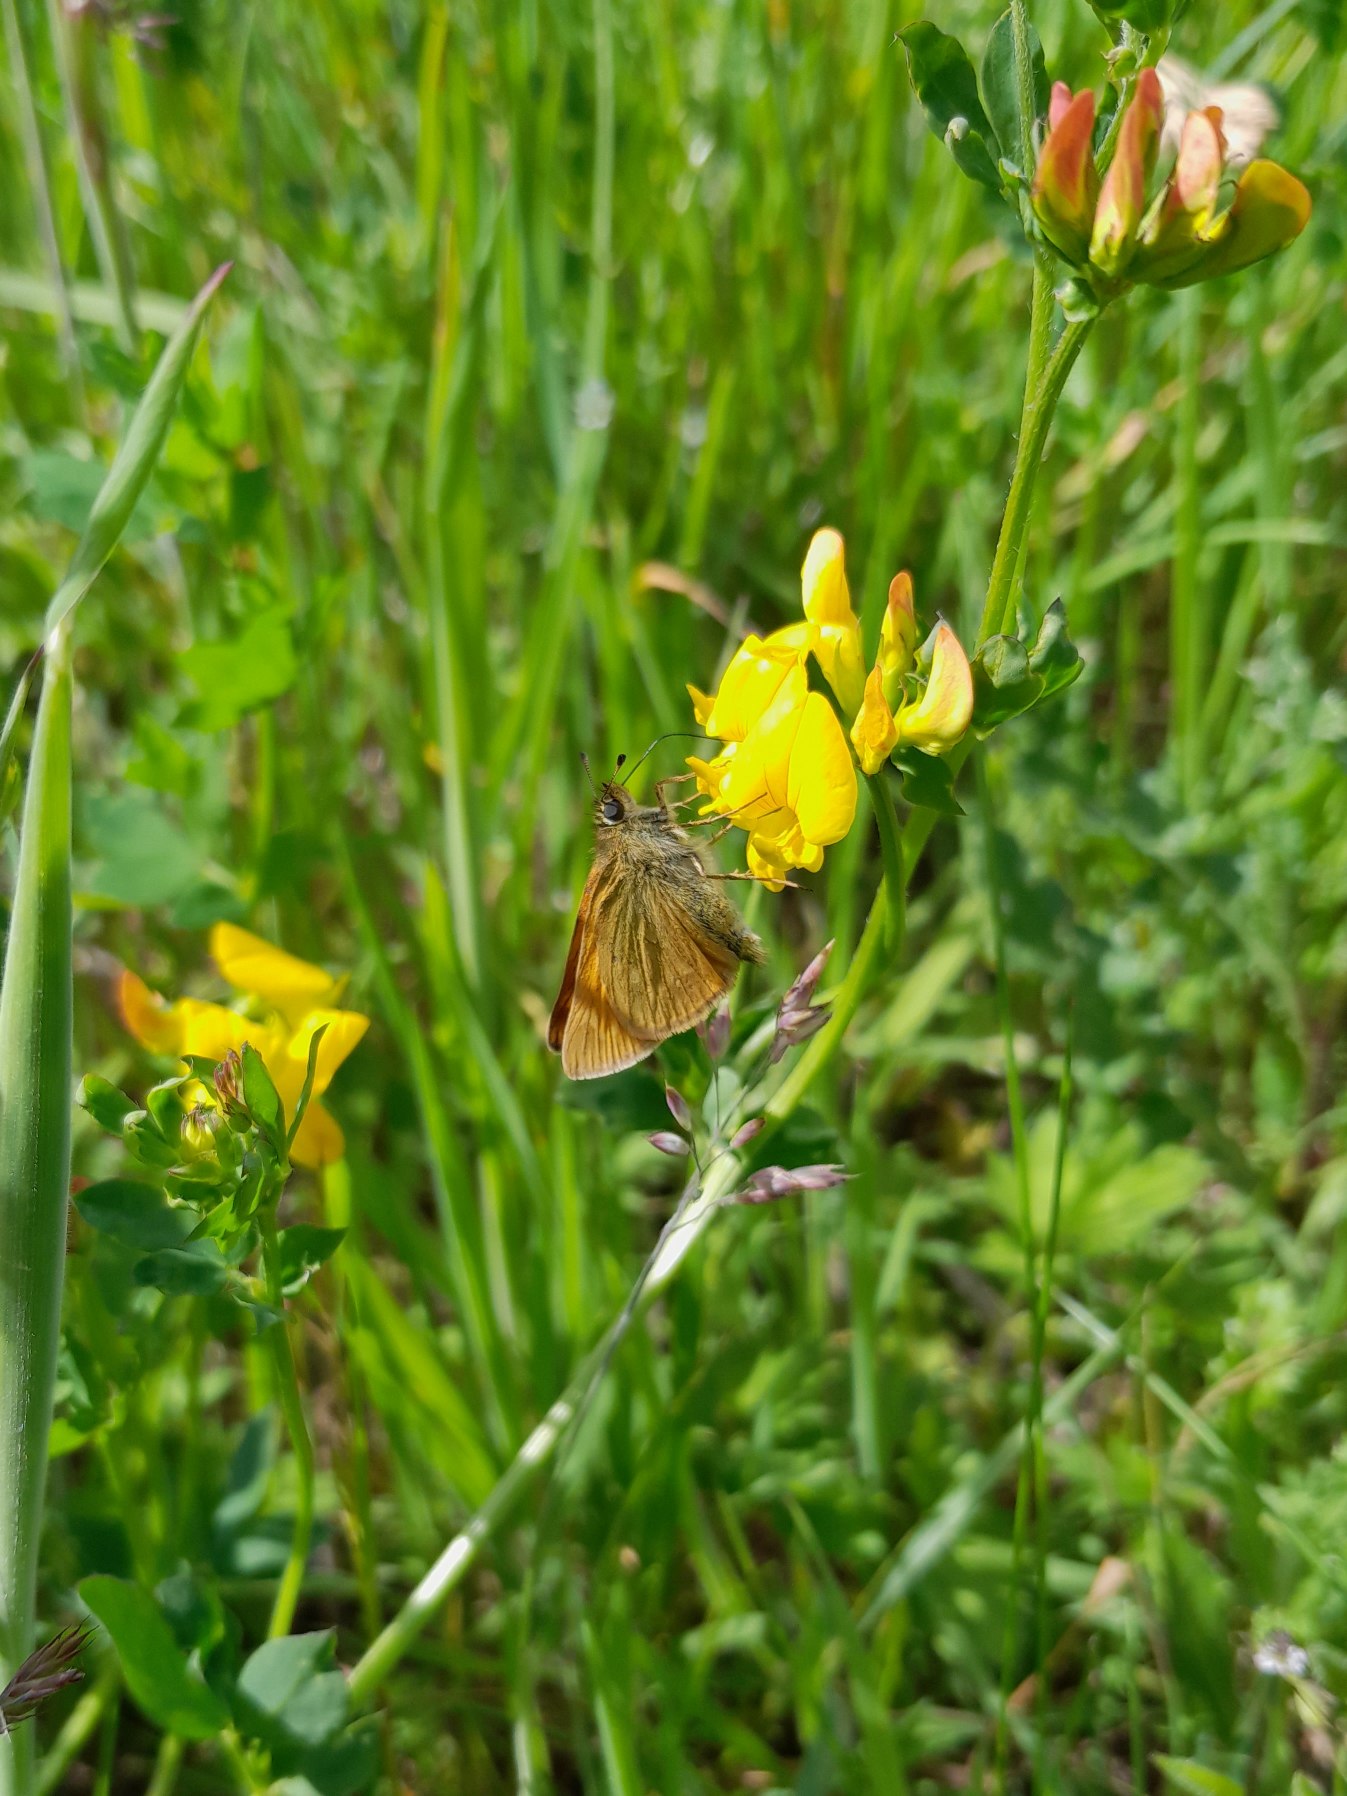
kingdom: Animalia
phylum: Arthropoda
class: Insecta
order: Lepidoptera
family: Hesperiidae
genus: Ochlodes
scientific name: Ochlodes venata
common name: Stor bredpande
